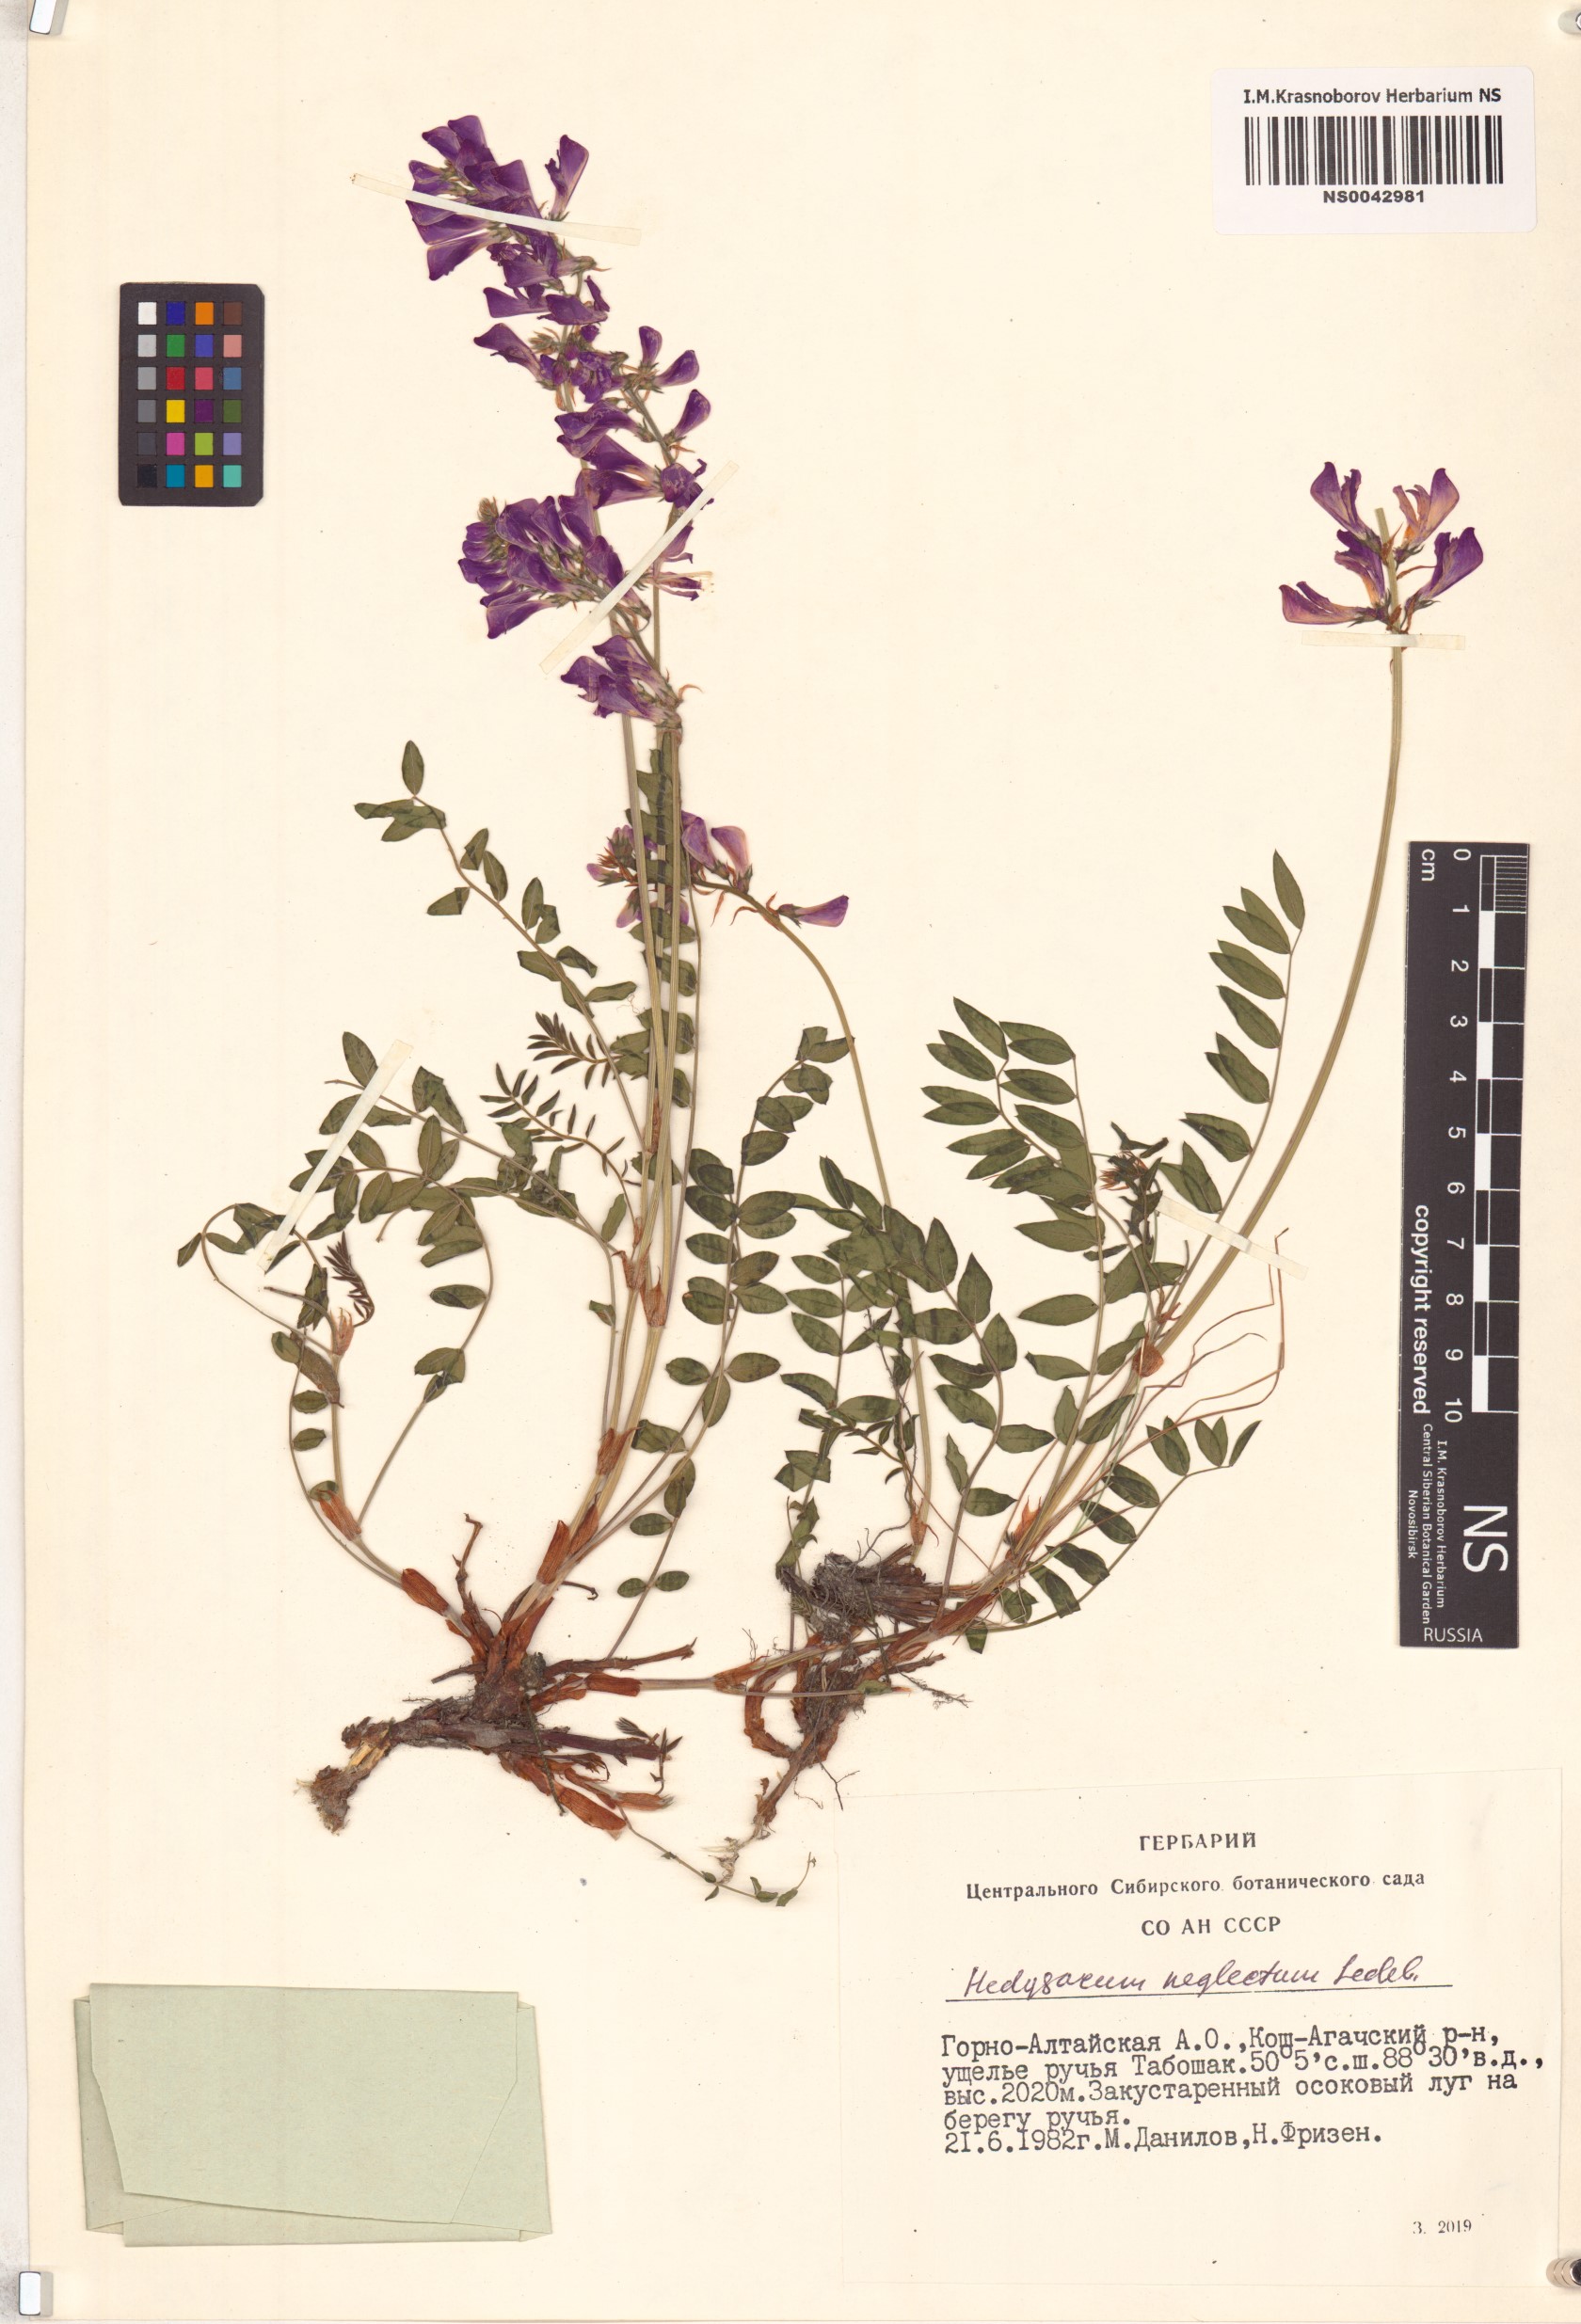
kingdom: Plantae
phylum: Tracheophyta
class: Magnoliopsida
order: Fabales
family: Fabaceae
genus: Hedysarum
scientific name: Hedysarum neglectum
